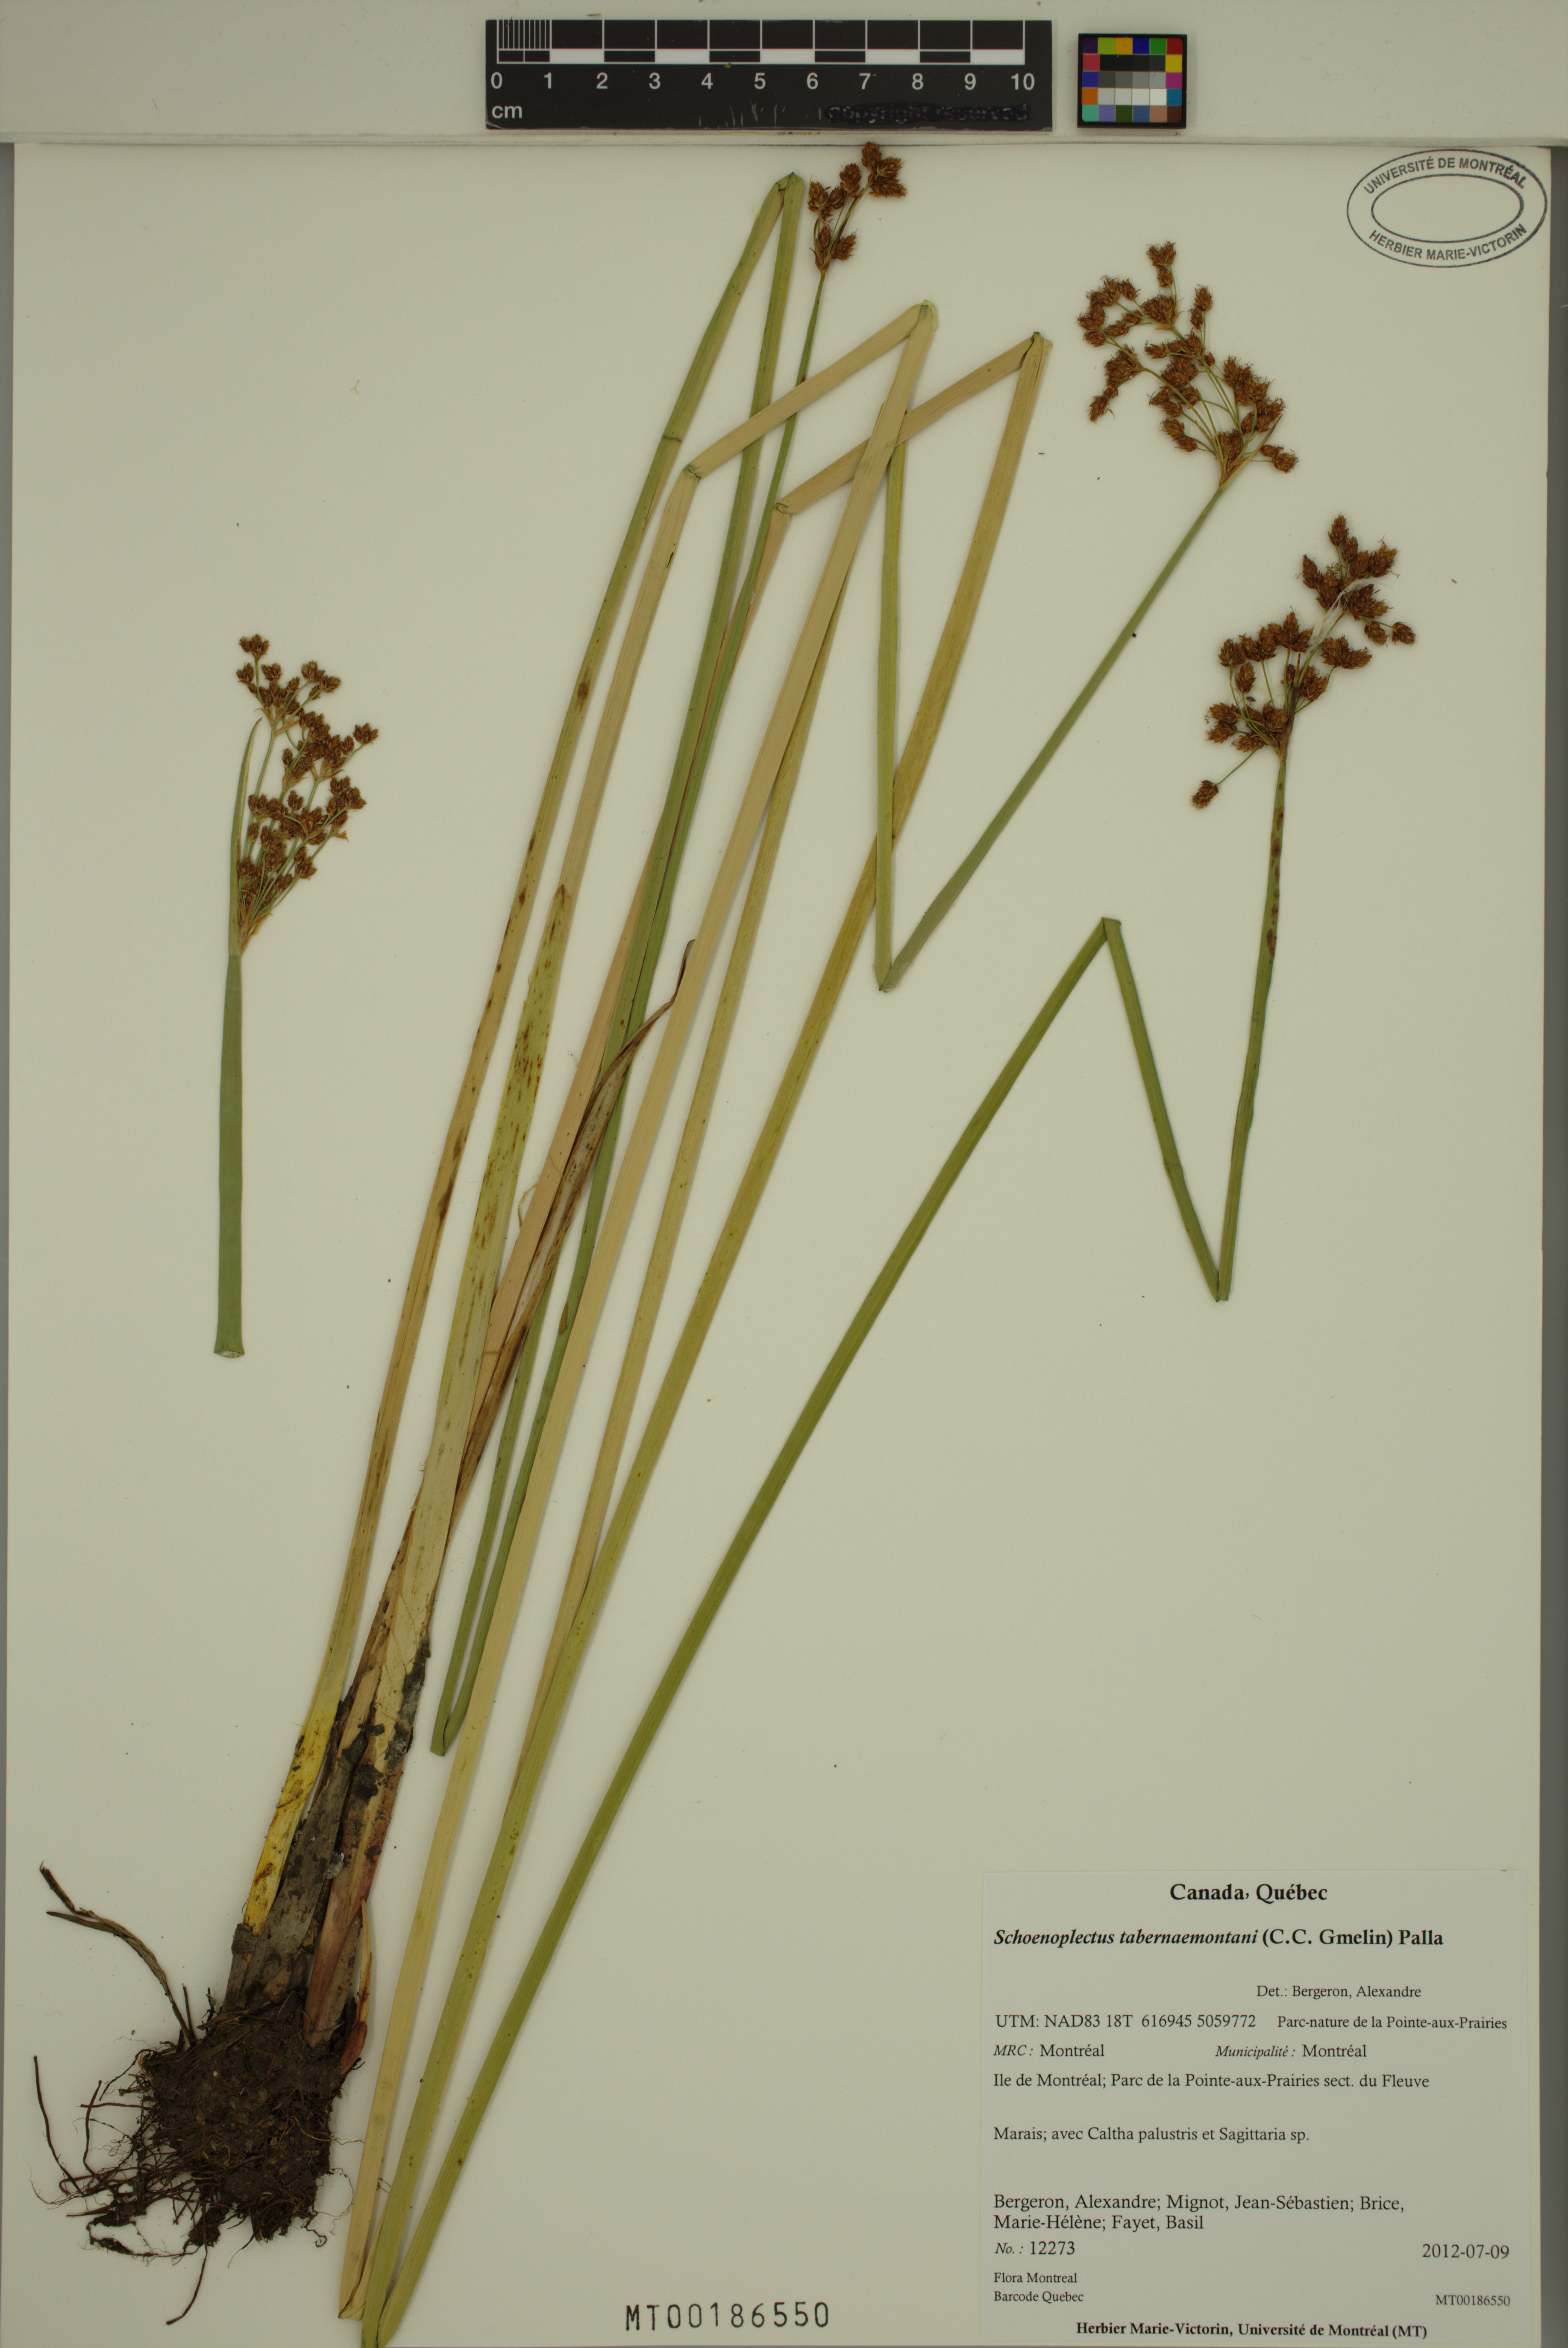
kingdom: Plantae
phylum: Tracheophyta
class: Liliopsida
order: Poales
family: Cyperaceae
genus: Schoenoplectus
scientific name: Schoenoplectus tabernaemontani
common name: Grey club-rush
